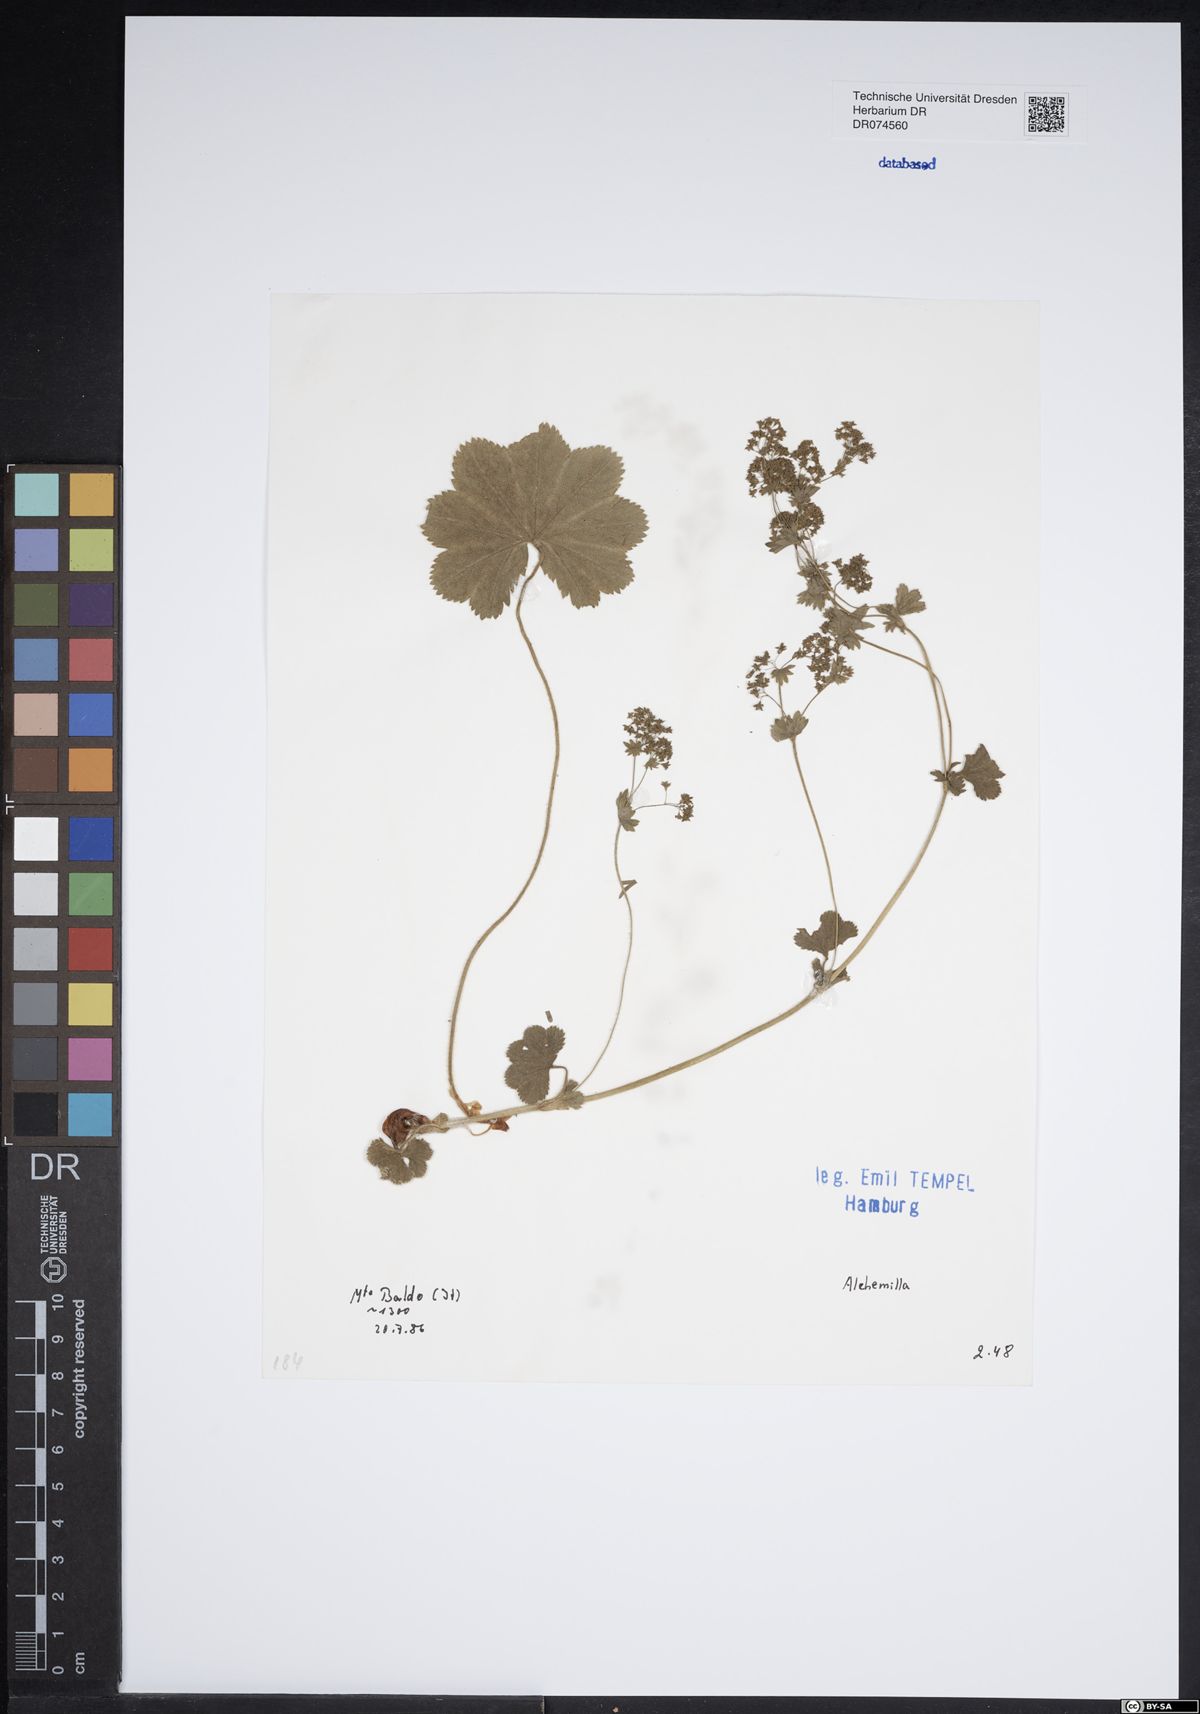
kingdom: Plantae
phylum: Tracheophyta
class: Magnoliopsida
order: Rosales
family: Rosaceae
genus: Alchemilla
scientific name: Alchemilla
